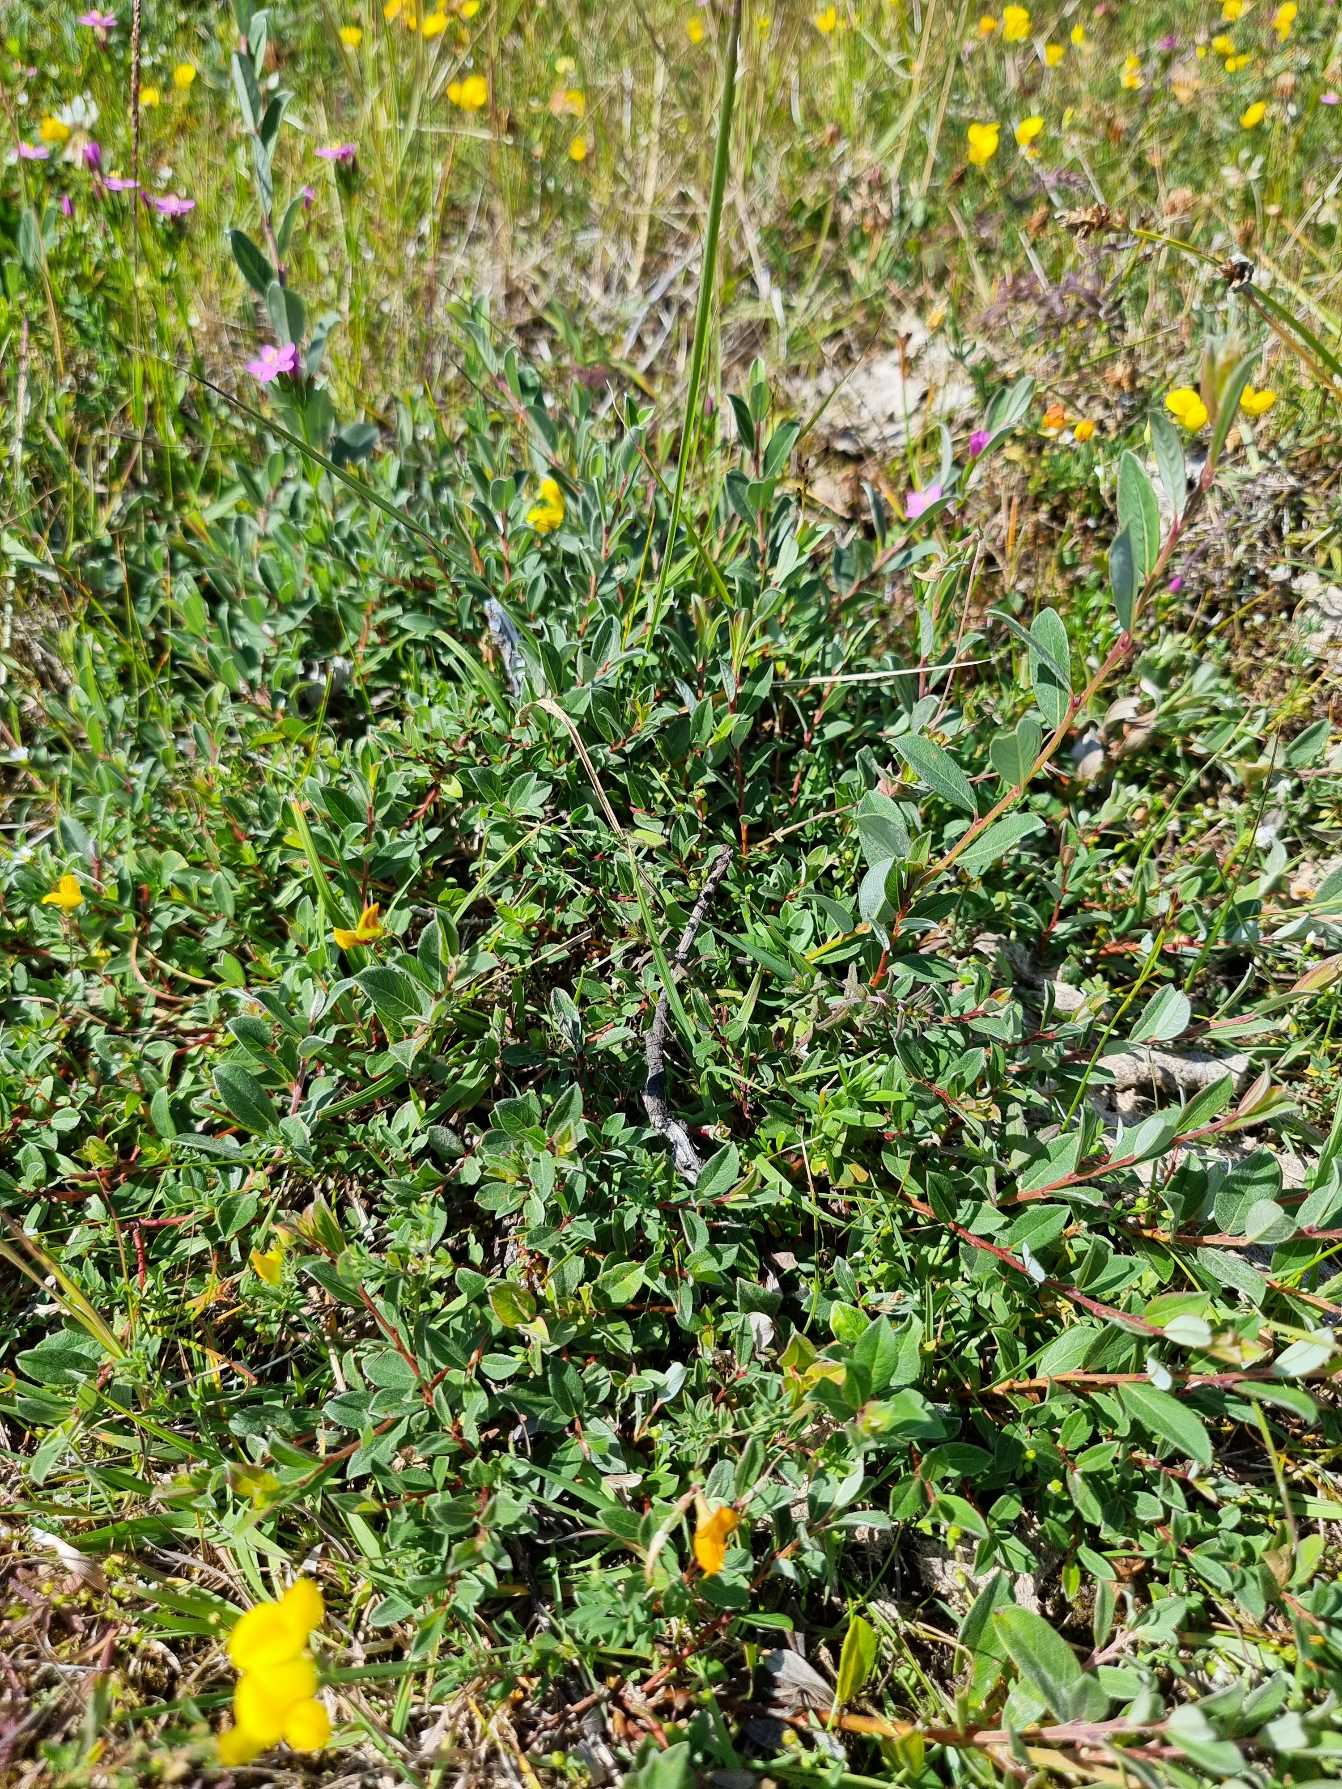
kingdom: Plantae
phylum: Tracheophyta
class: Magnoliopsida
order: Malpighiales
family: Salicaceae
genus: Salix
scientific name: Salix repens
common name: Krybende pil
